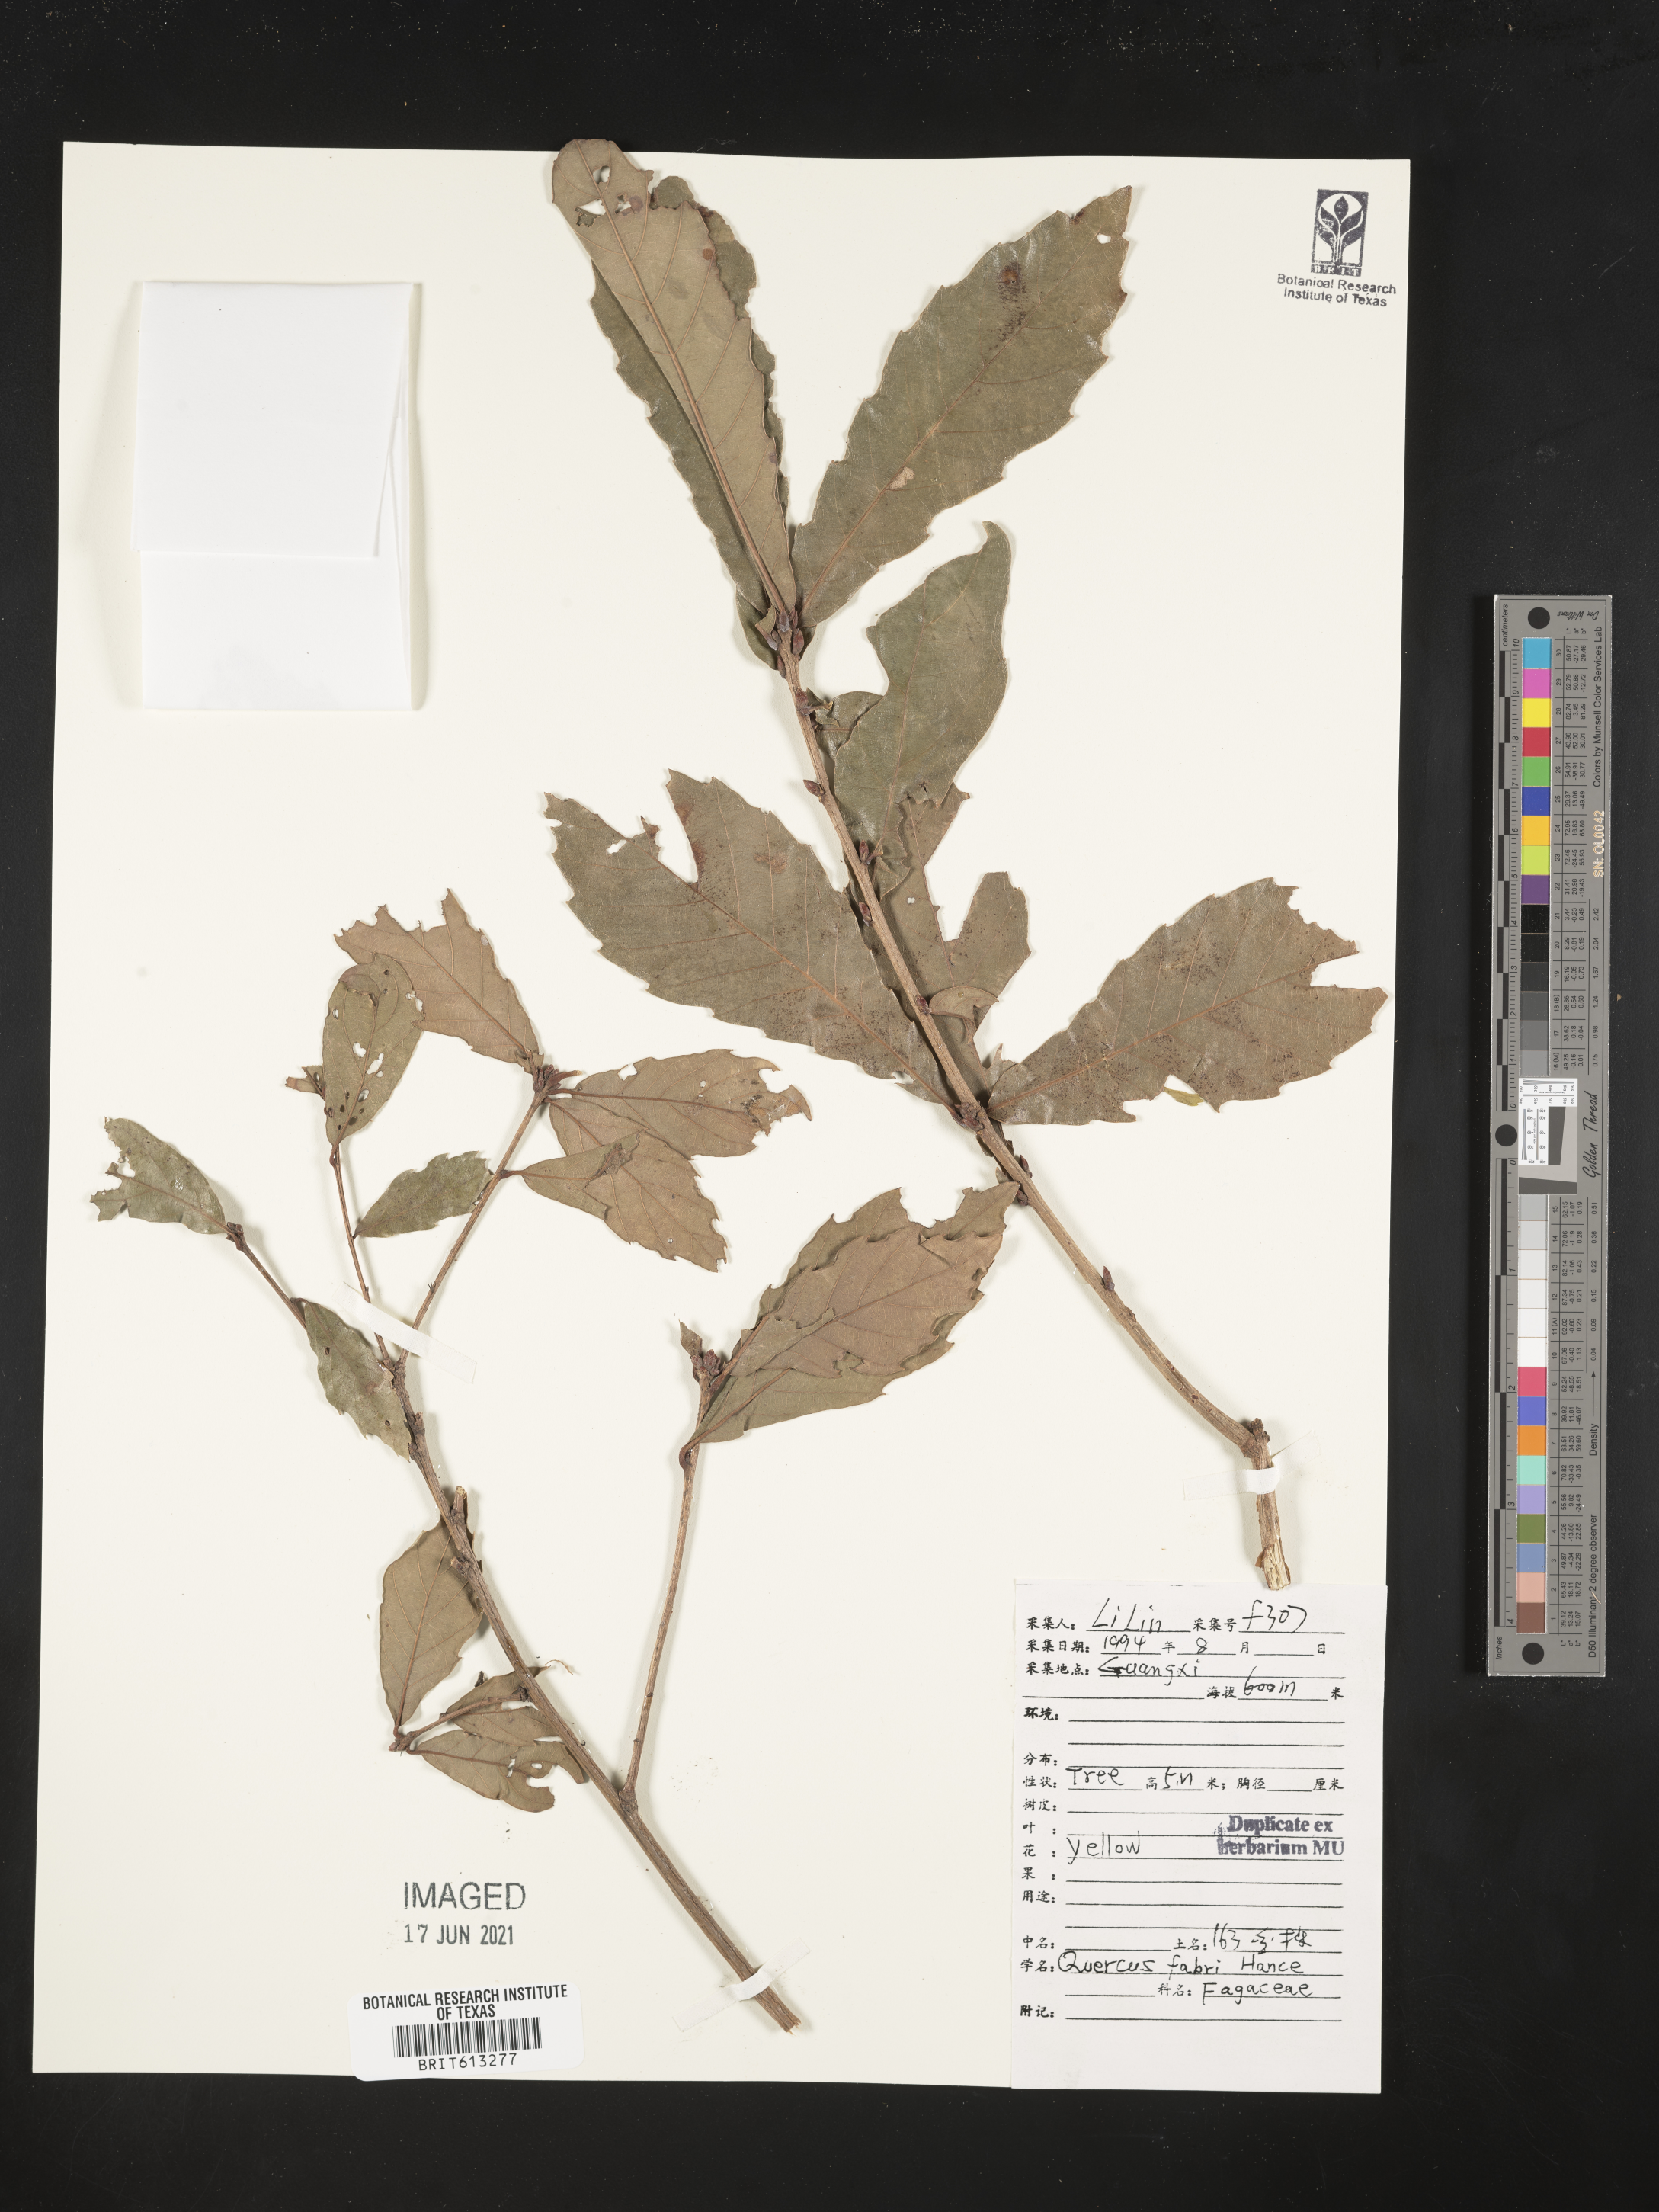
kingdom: Plantae
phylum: Tracheophyta
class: Magnoliopsida
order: Fagales
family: Fagaceae
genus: Quercus
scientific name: Quercus fabrei
